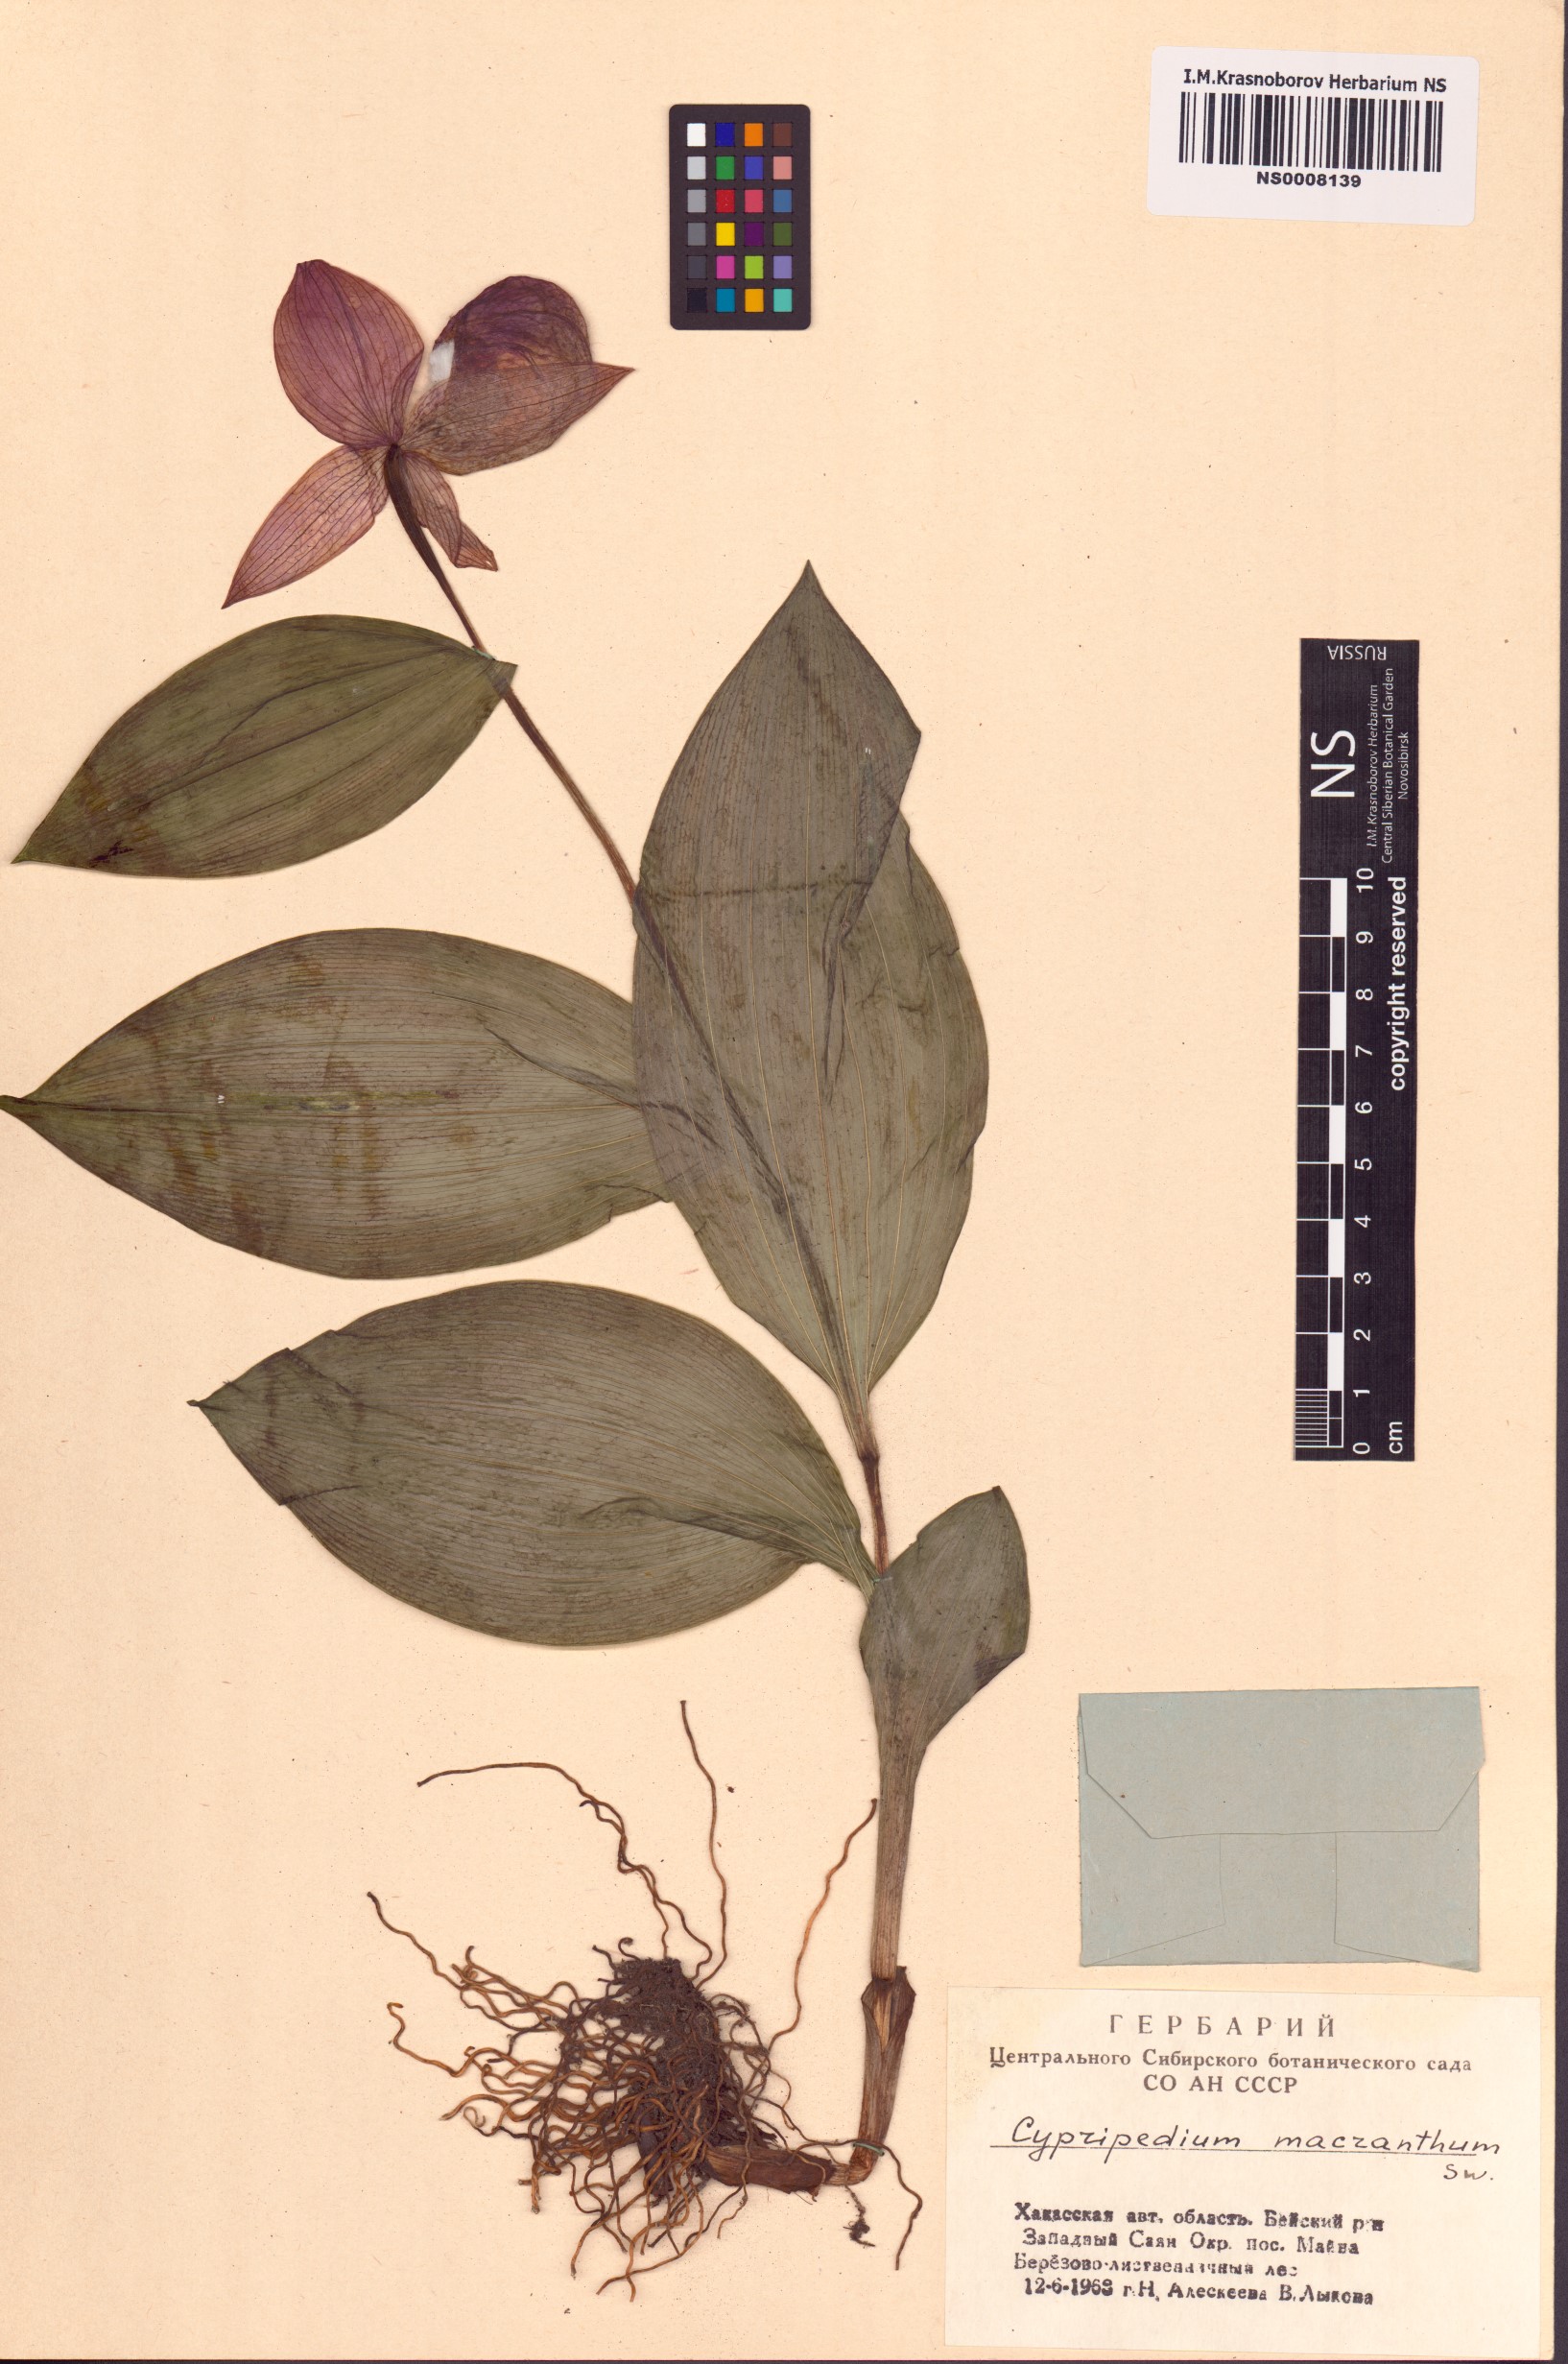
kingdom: Plantae
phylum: Tracheophyta
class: Liliopsida
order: Asparagales
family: Orchidaceae
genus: Cypripedium
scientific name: Cypripedium macranthos
